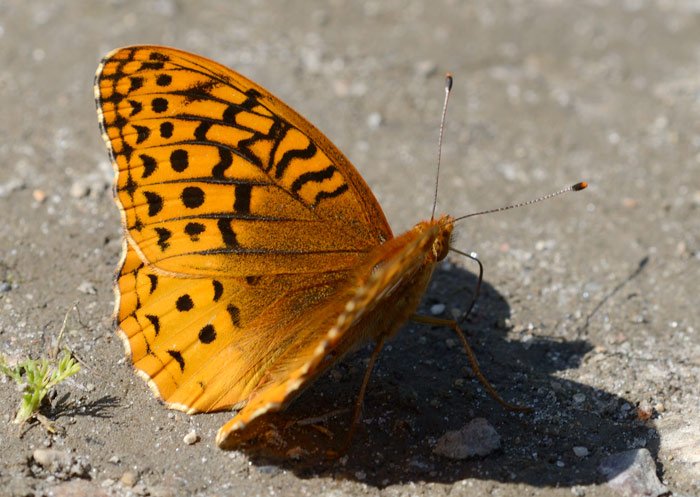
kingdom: Animalia
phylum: Arthropoda
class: Insecta
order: Lepidoptera
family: Nymphalidae
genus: Speyeria
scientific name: Speyeria cybele
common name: Great Spangled Fritillary
